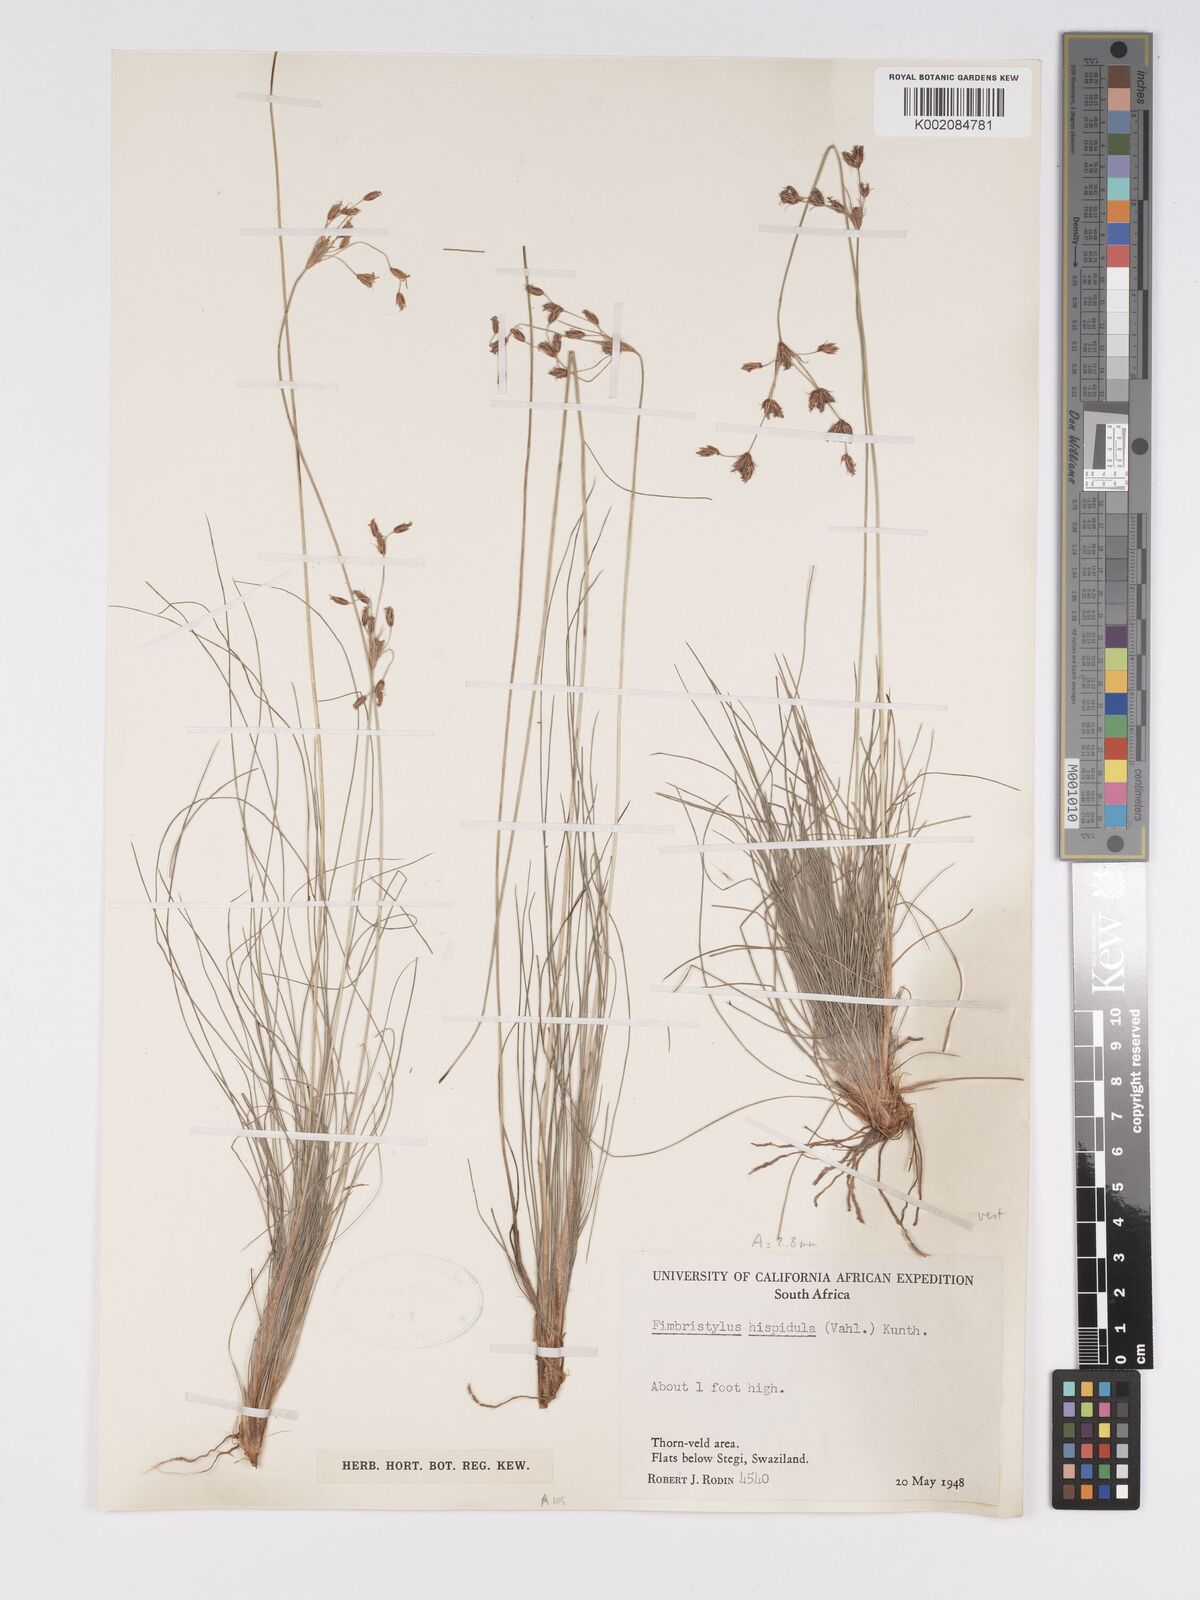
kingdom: Plantae
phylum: Tracheophyta
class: Liliopsida
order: Poales
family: Cyperaceae
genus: Bulbostylis
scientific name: Bulbostylis
